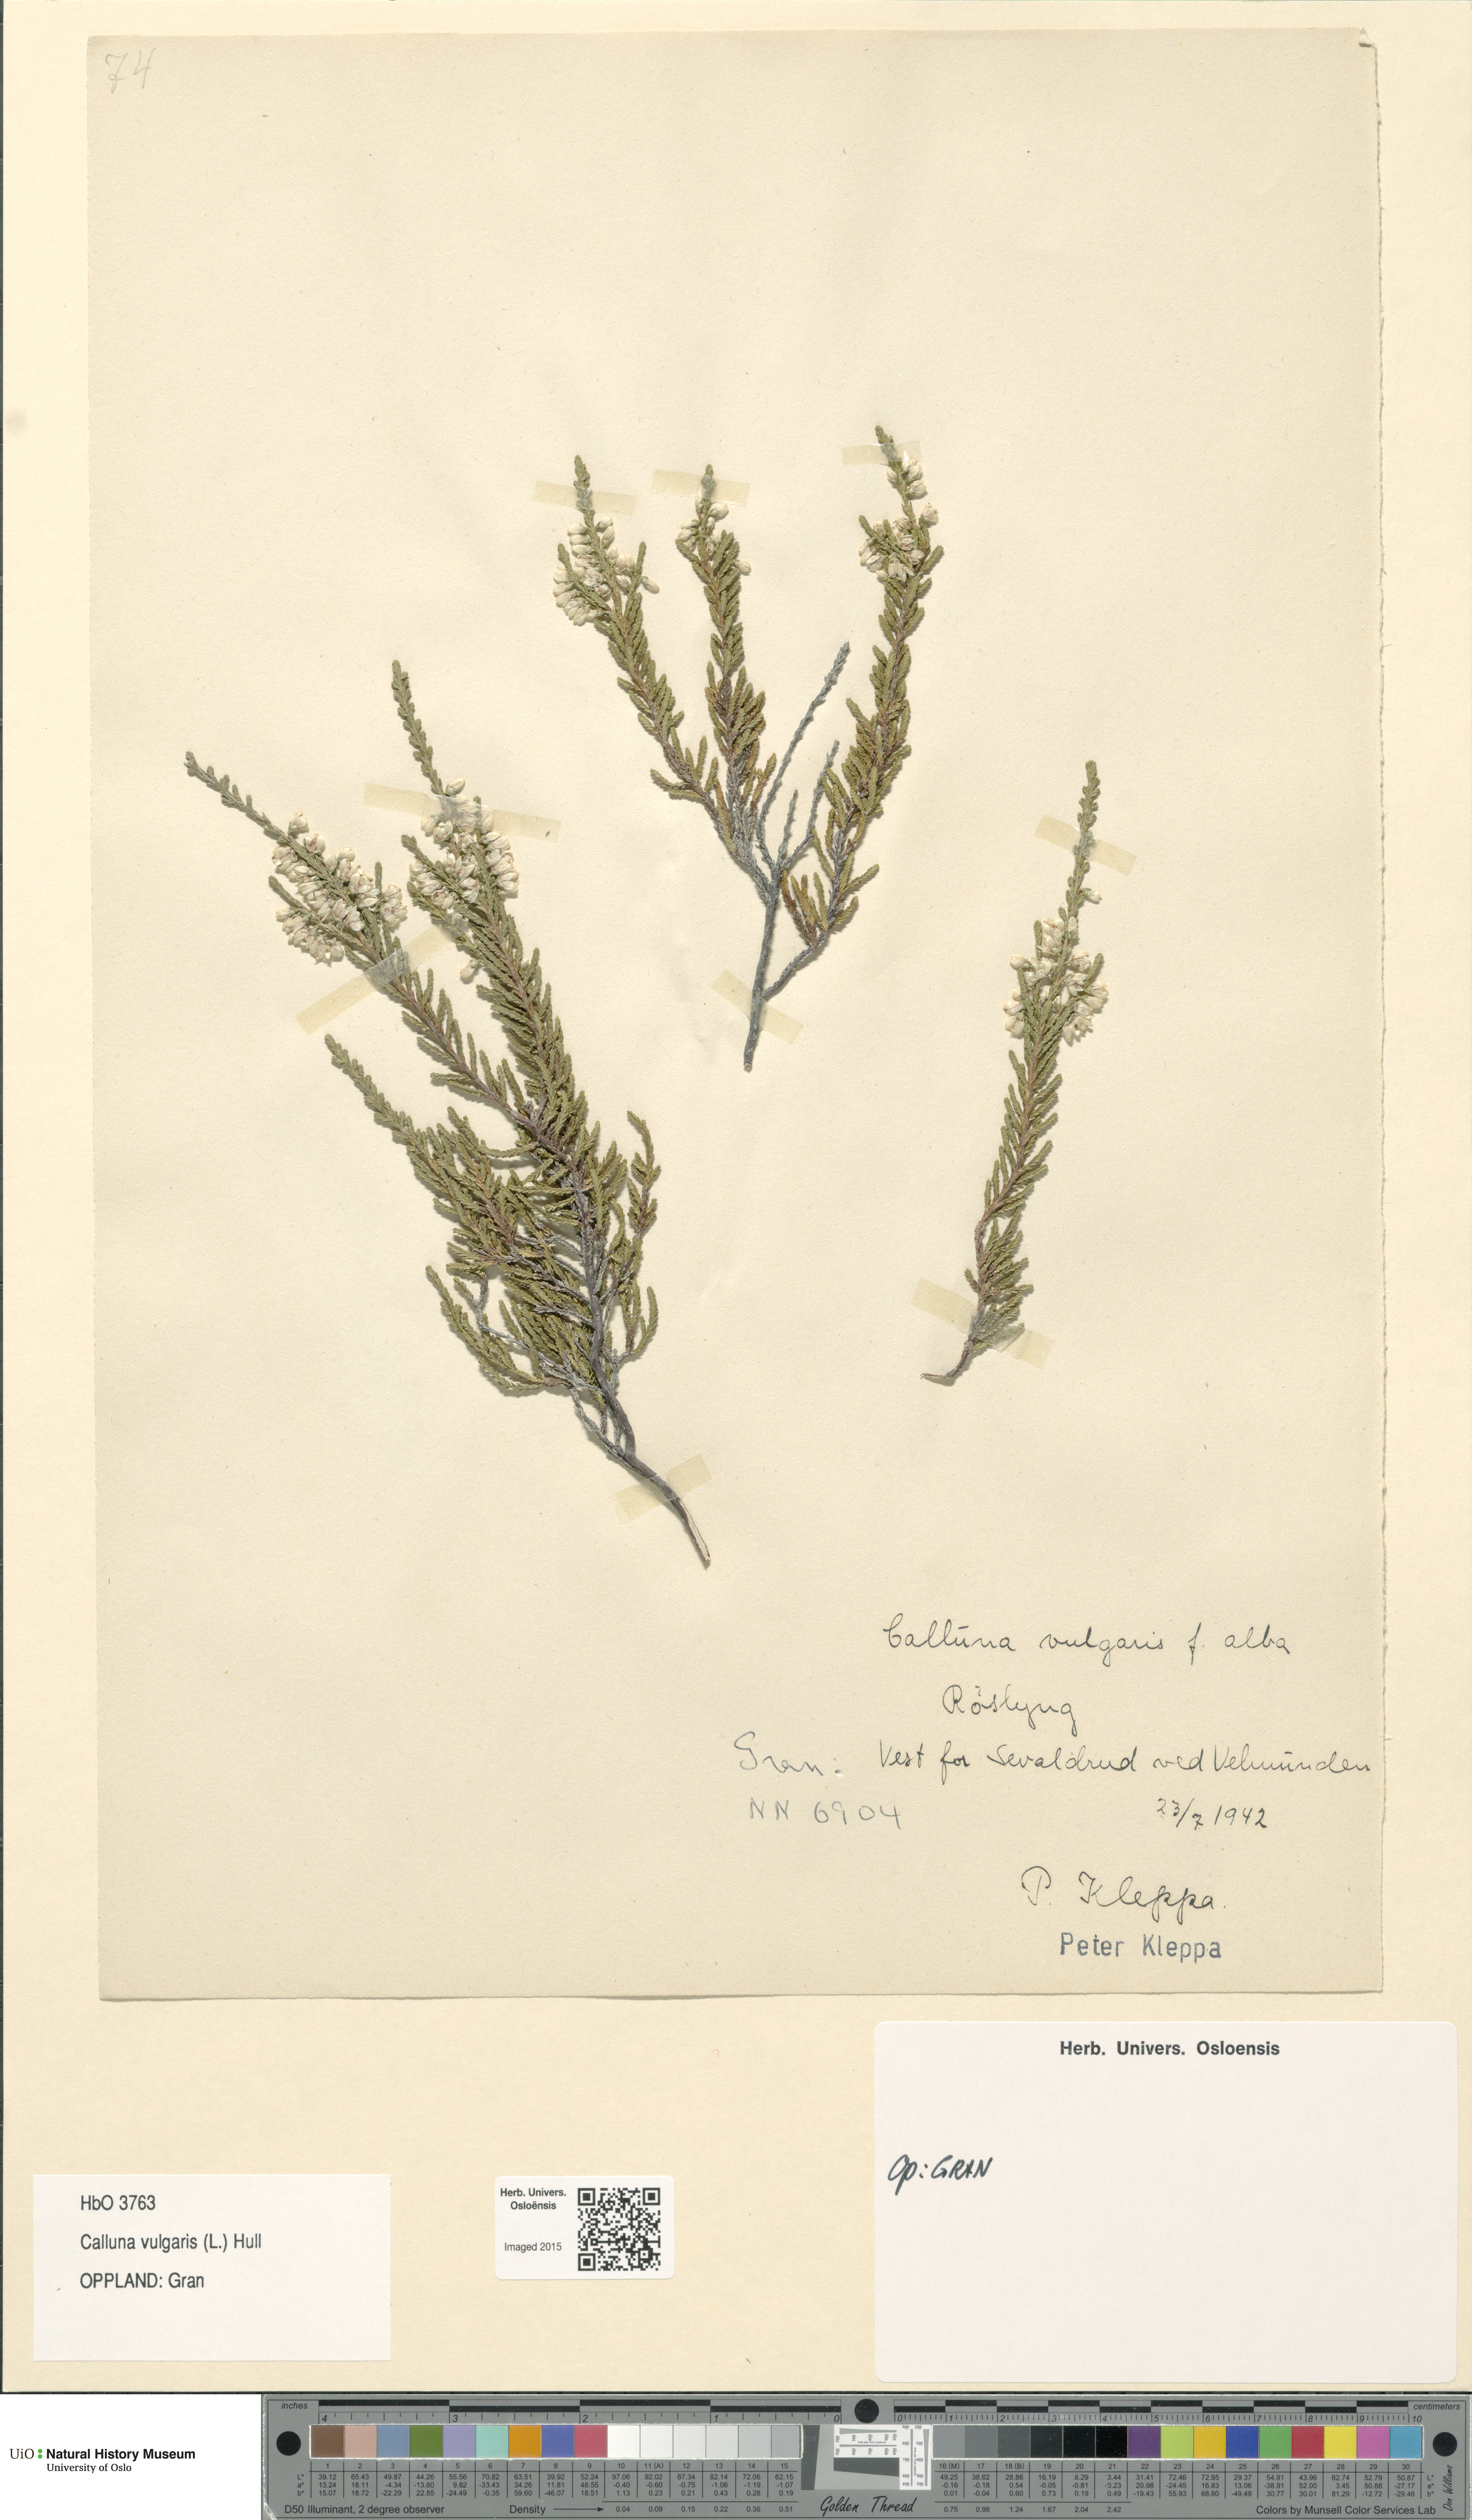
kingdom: Plantae
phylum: Tracheophyta
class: Magnoliopsida
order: Ericales
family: Ericaceae
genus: Calluna
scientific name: Calluna vulgaris
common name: Heather
